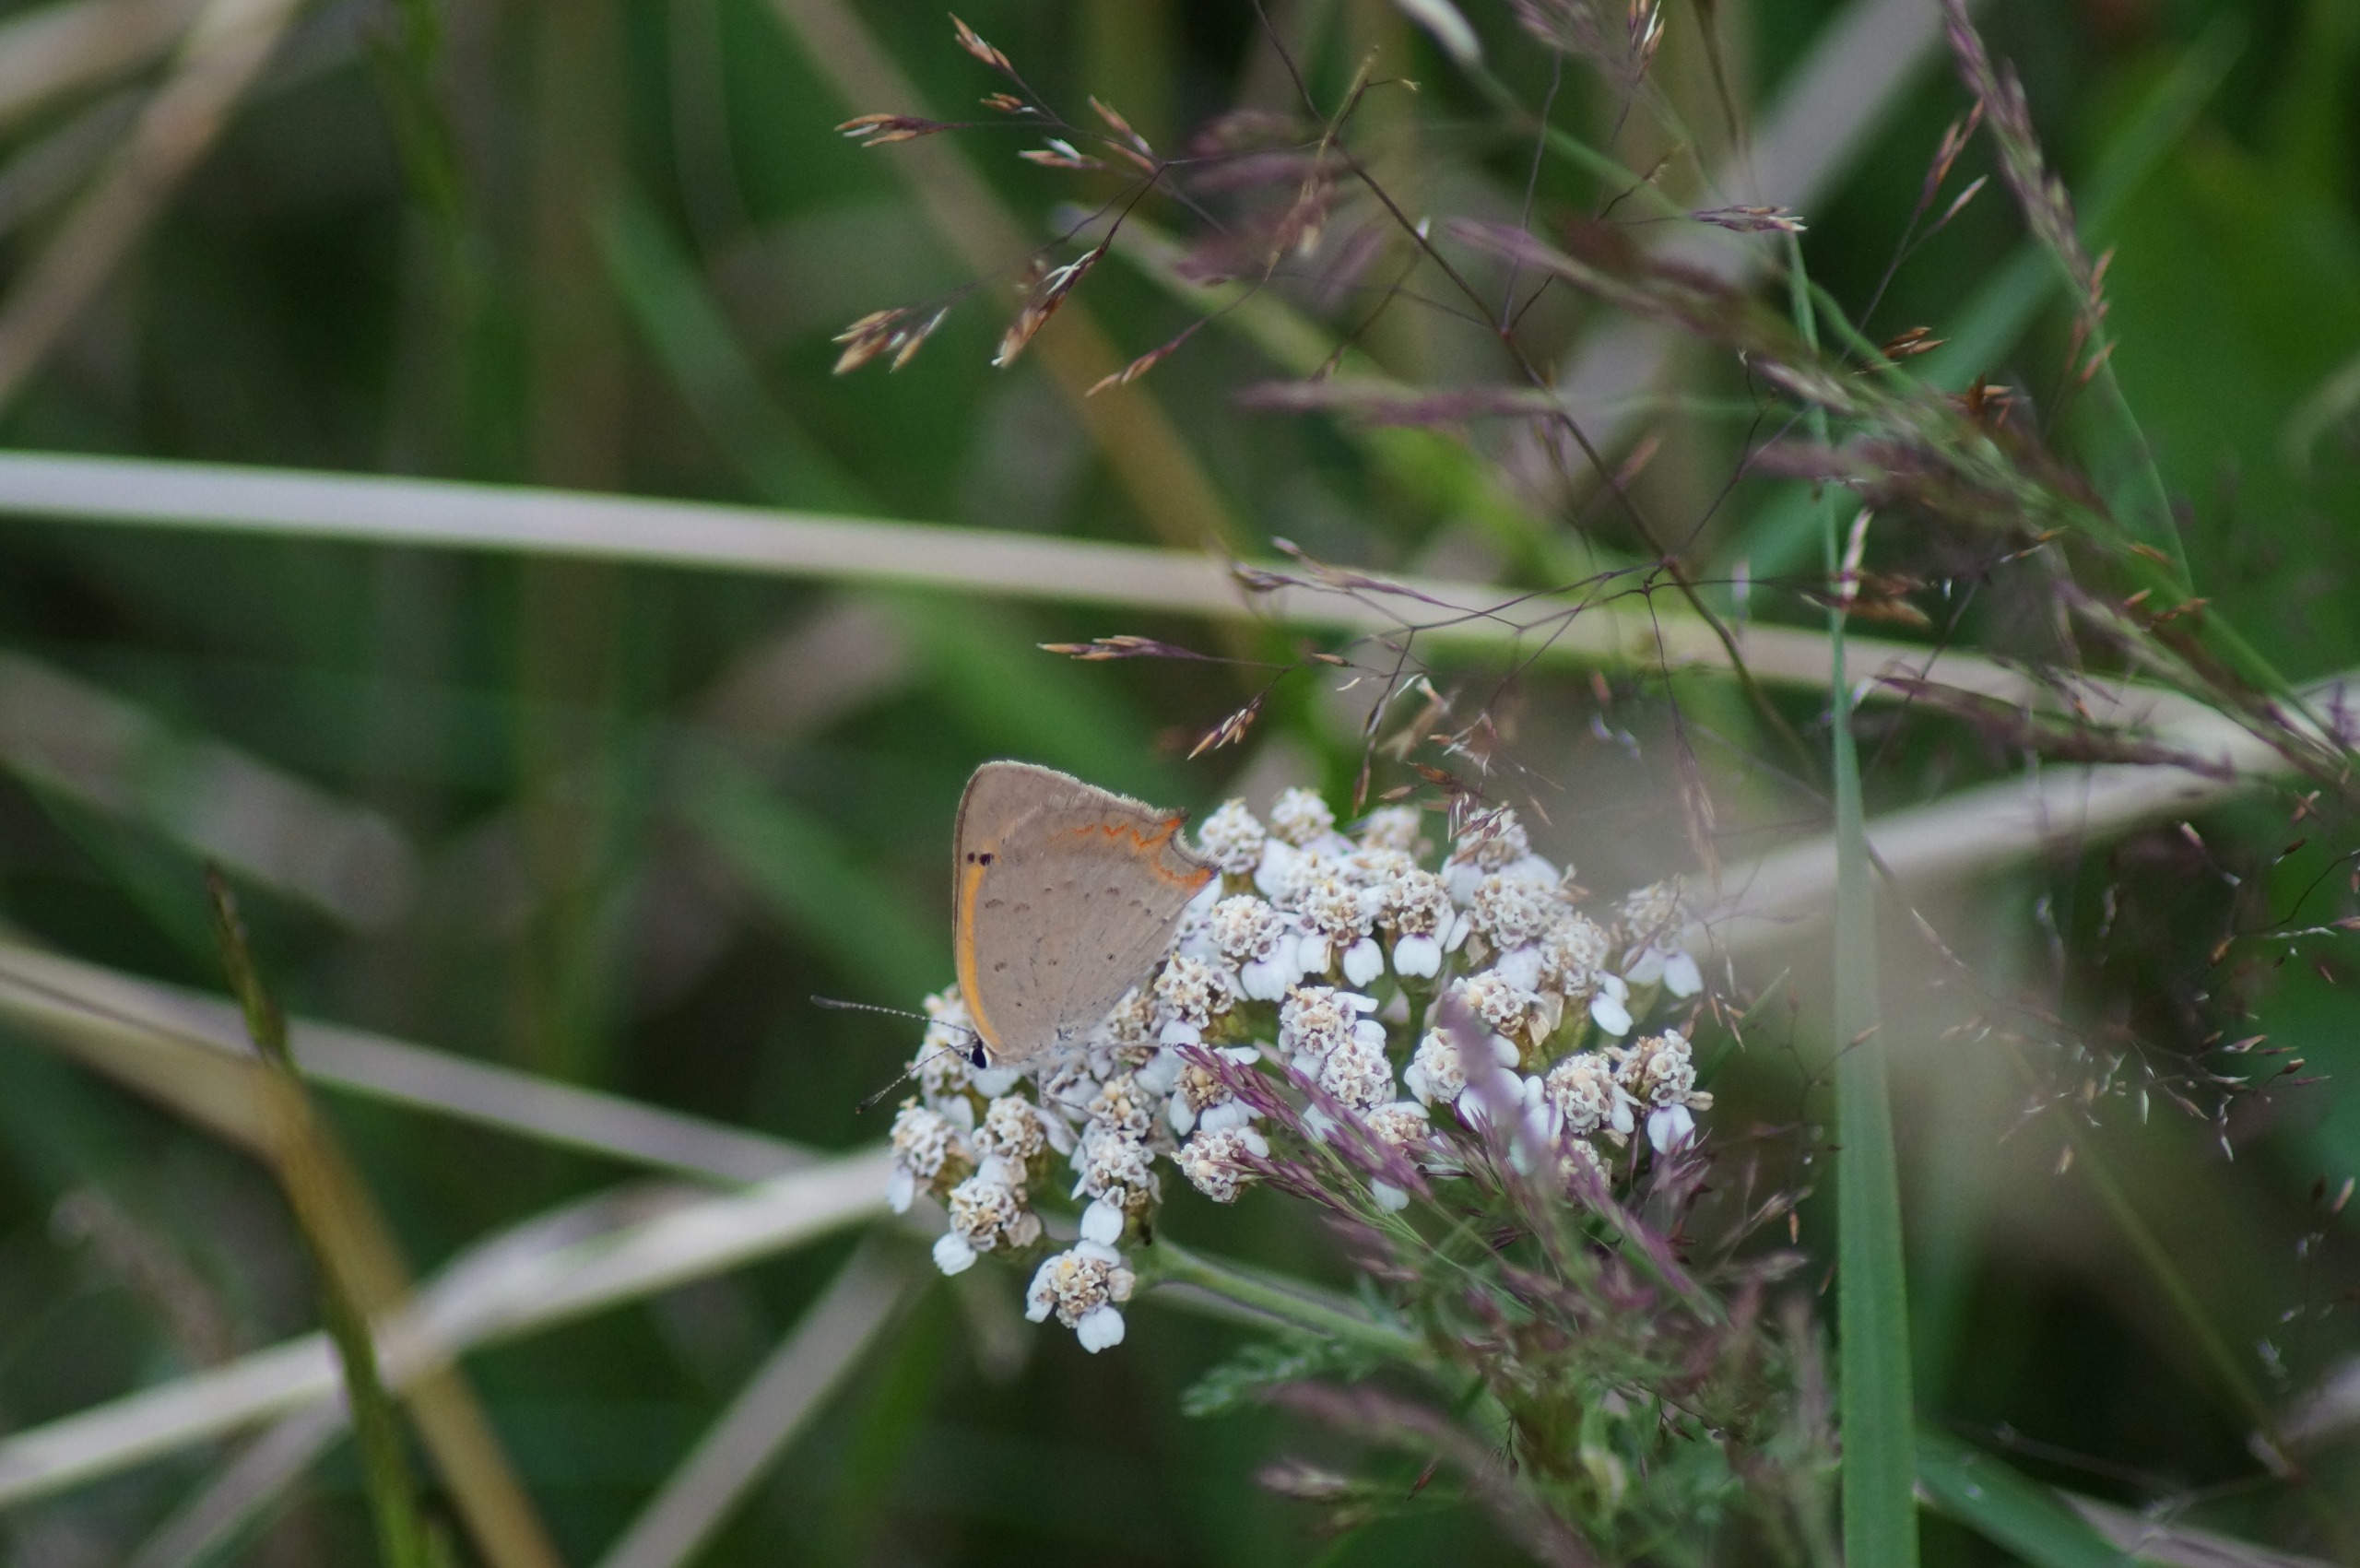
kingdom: Animalia
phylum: Arthropoda
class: Insecta
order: Lepidoptera
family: Lycaenidae
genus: Lycaena
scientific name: Lycaena phlaeas
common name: Lille ildfugl
